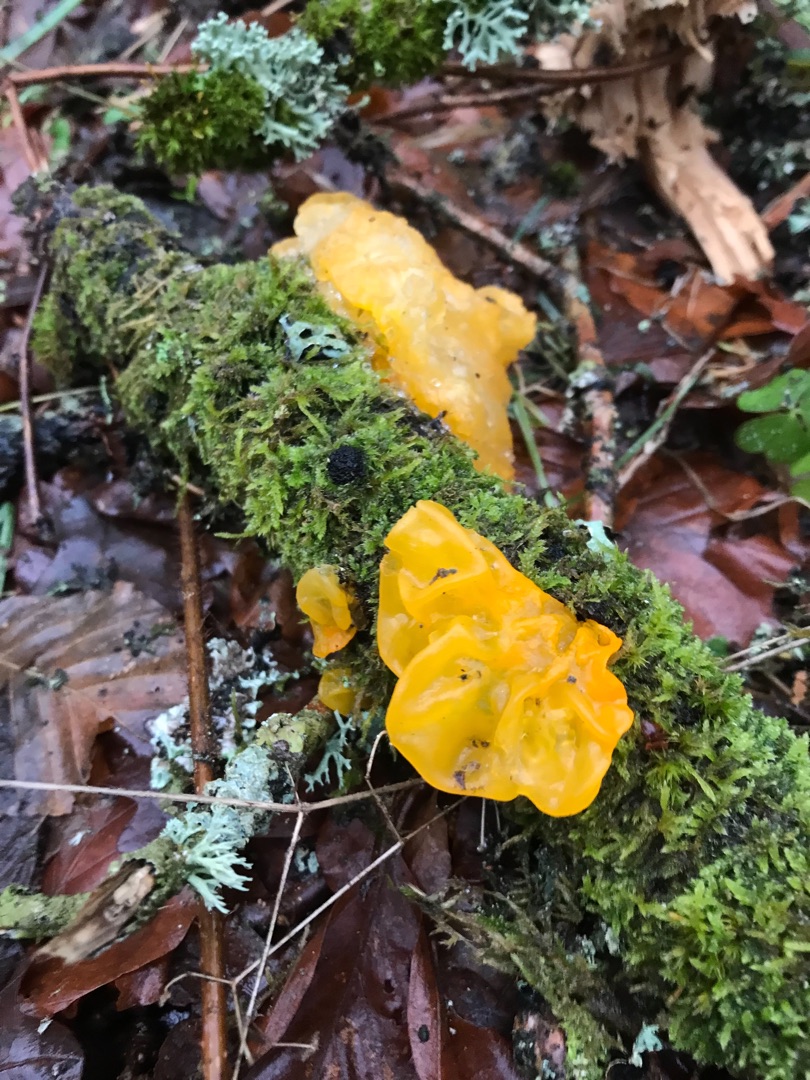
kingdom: Fungi
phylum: Basidiomycota
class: Tremellomycetes
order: Tremellales
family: Tremellaceae
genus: Tremella
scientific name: Tremella mesenterica
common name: Gul bævresvamp
